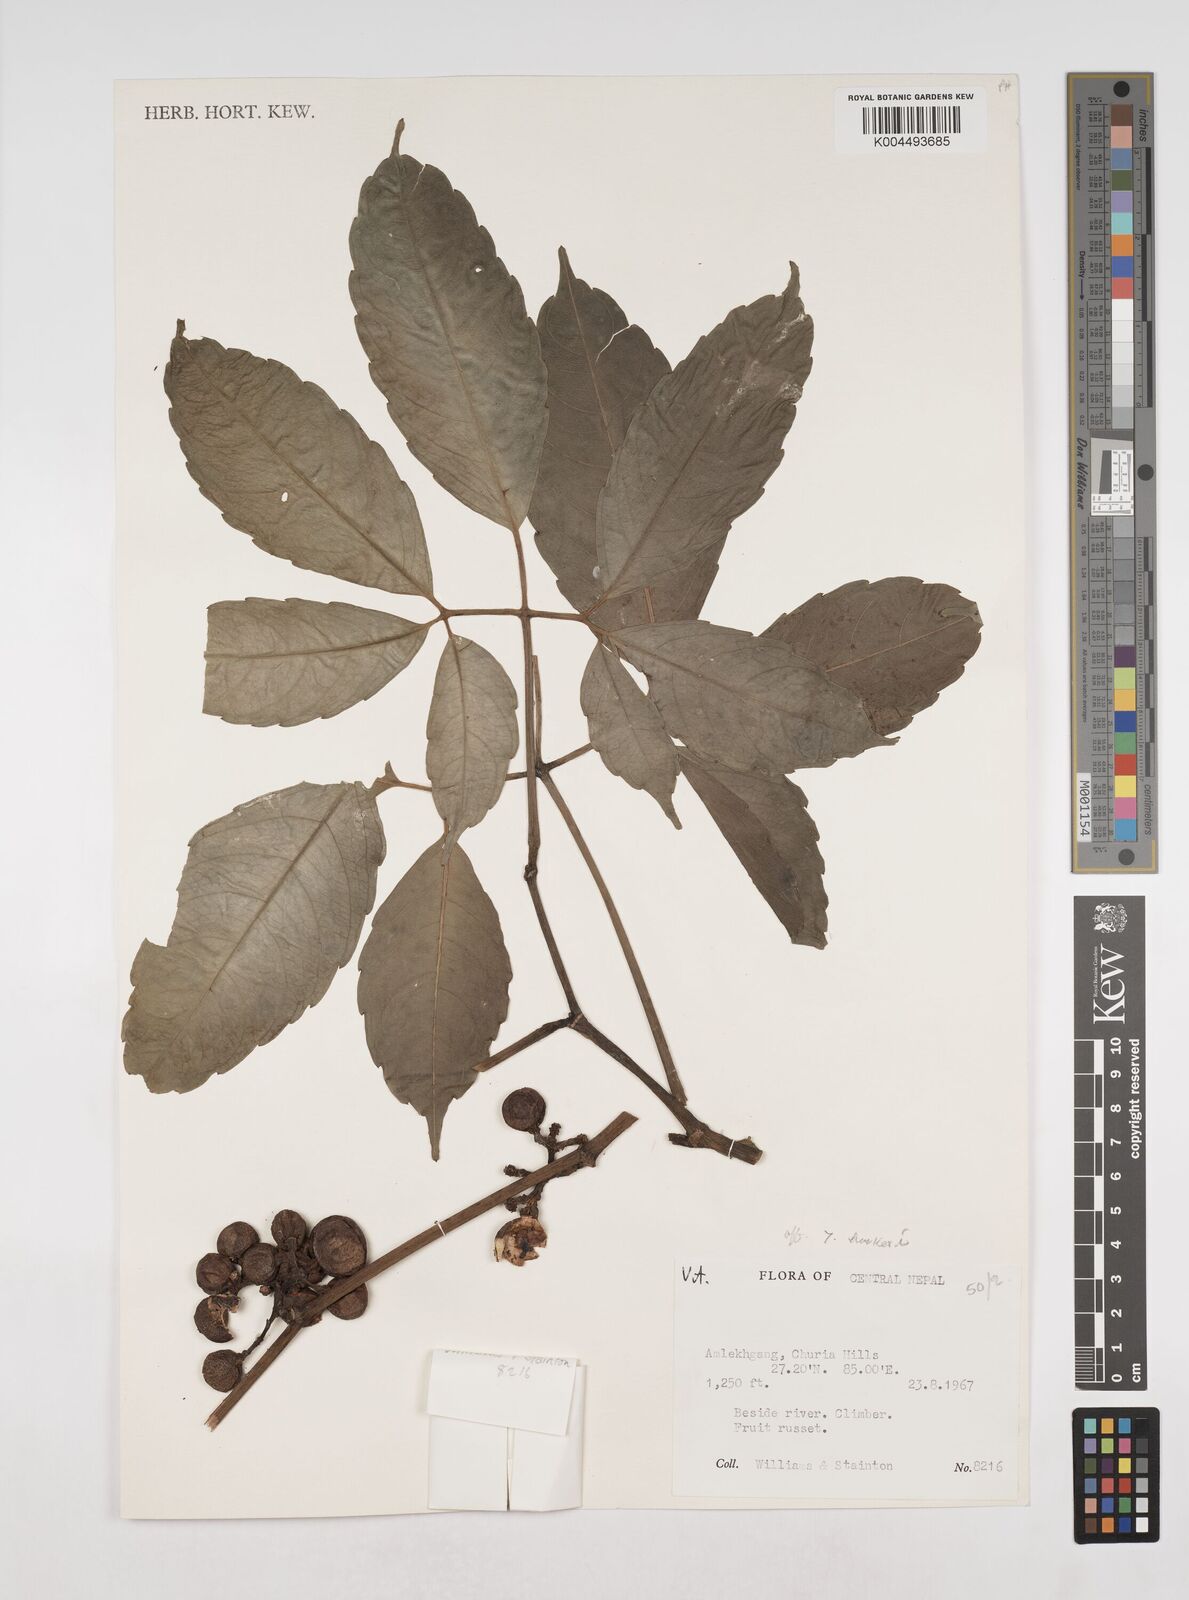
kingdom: Plantae
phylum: Tracheophyta
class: Magnoliopsida
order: Vitales
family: Vitaceae
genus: Tetrastigma
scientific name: Tetrastigma
